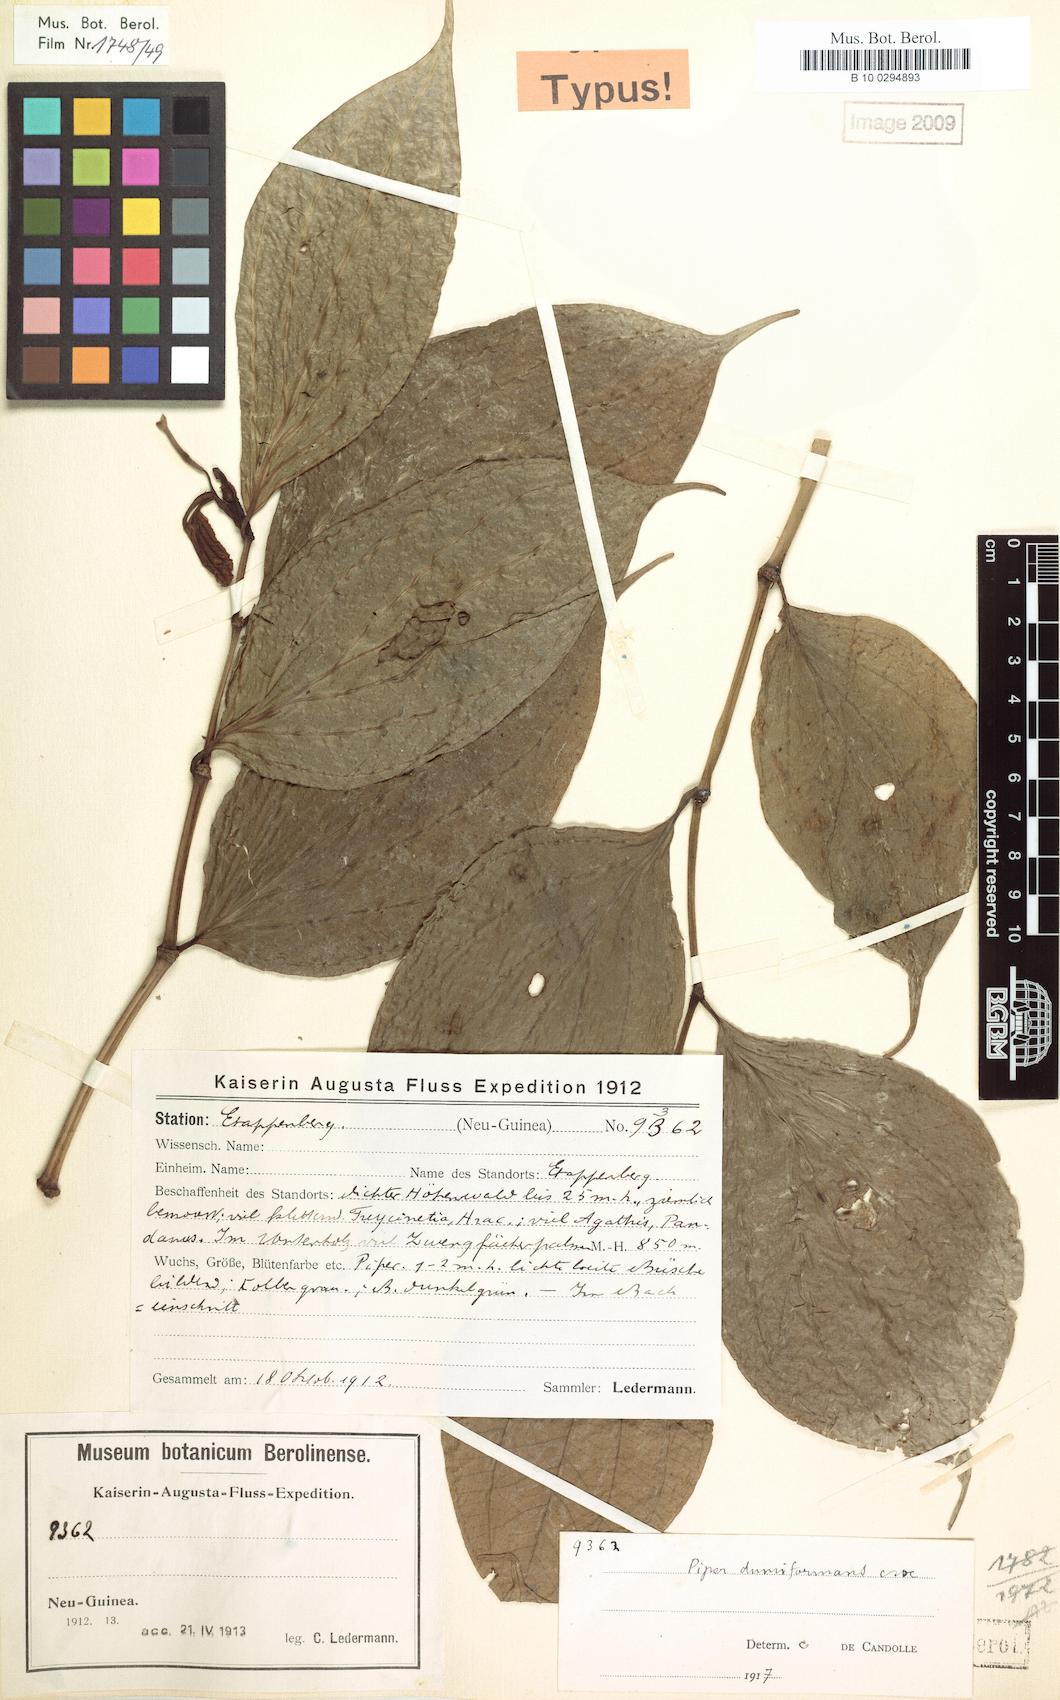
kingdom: Plantae
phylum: Tracheophyta
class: Magnoliopsida
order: Piperales
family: Piperaceae
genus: Piper
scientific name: Piper dumiformans
